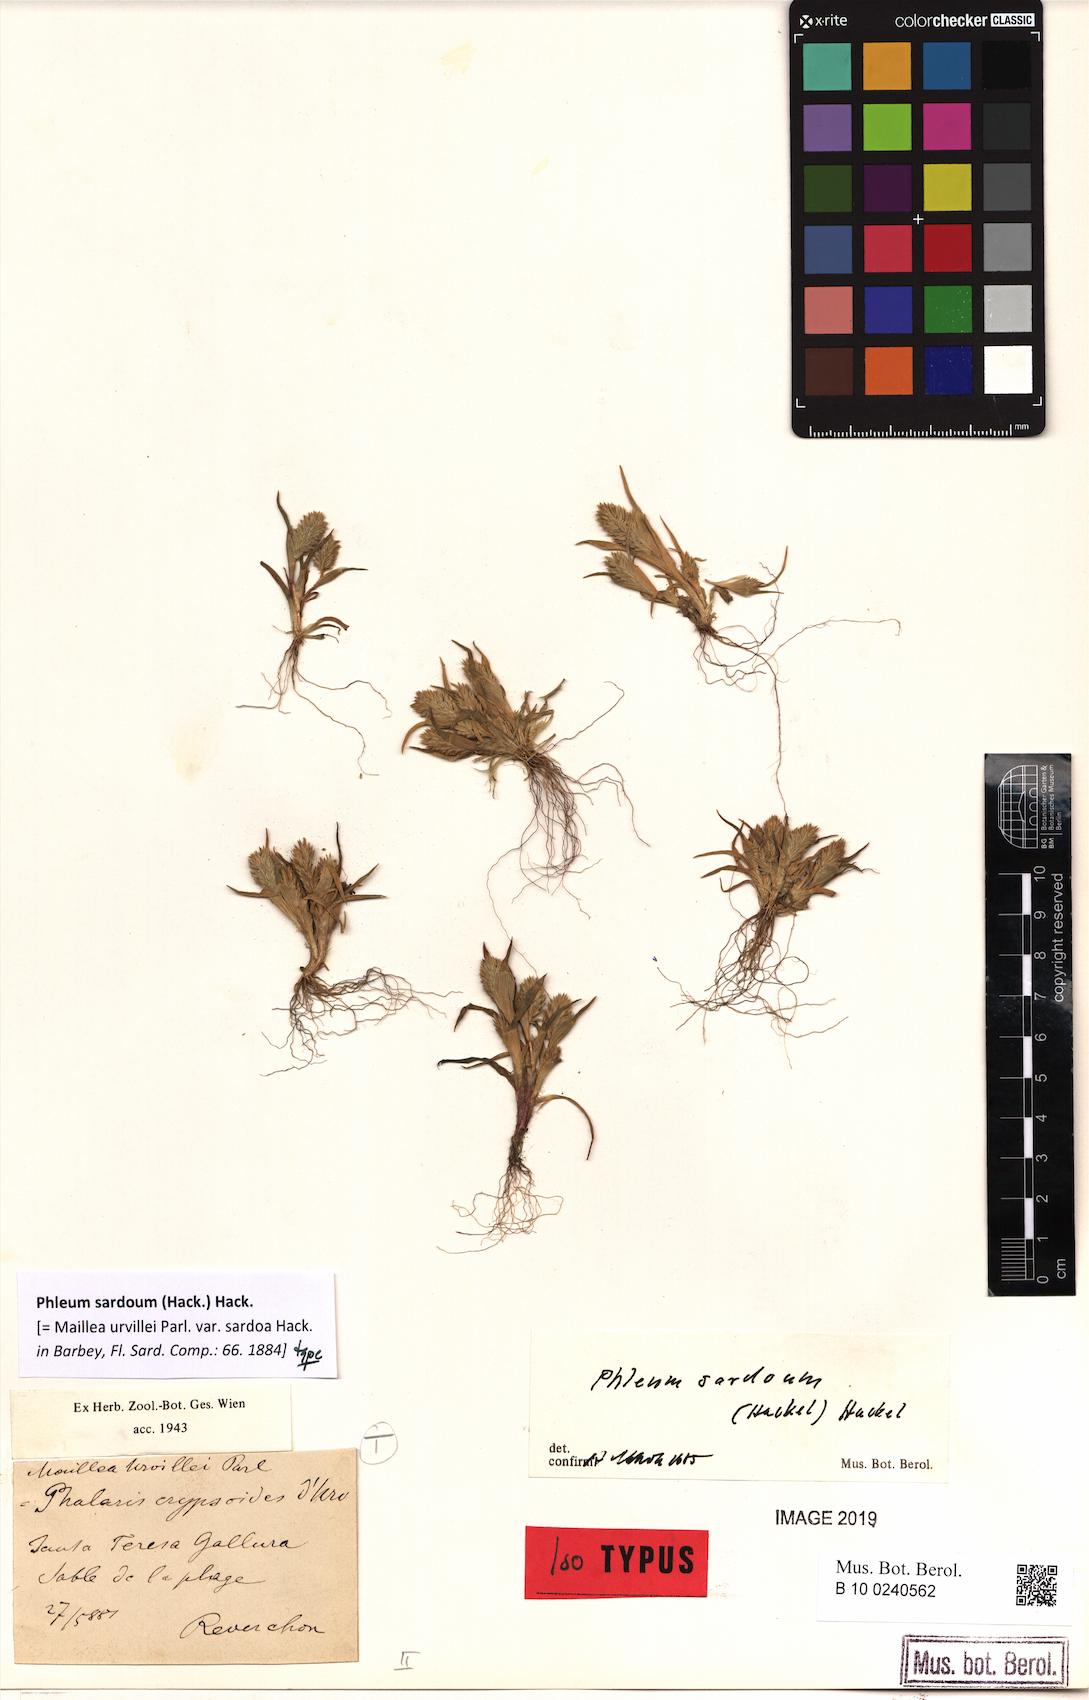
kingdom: Plantae
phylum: Tracheophyta
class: Liliopsida
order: Poales
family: Poaceae
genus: Phleum
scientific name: Phleum crypsoides
